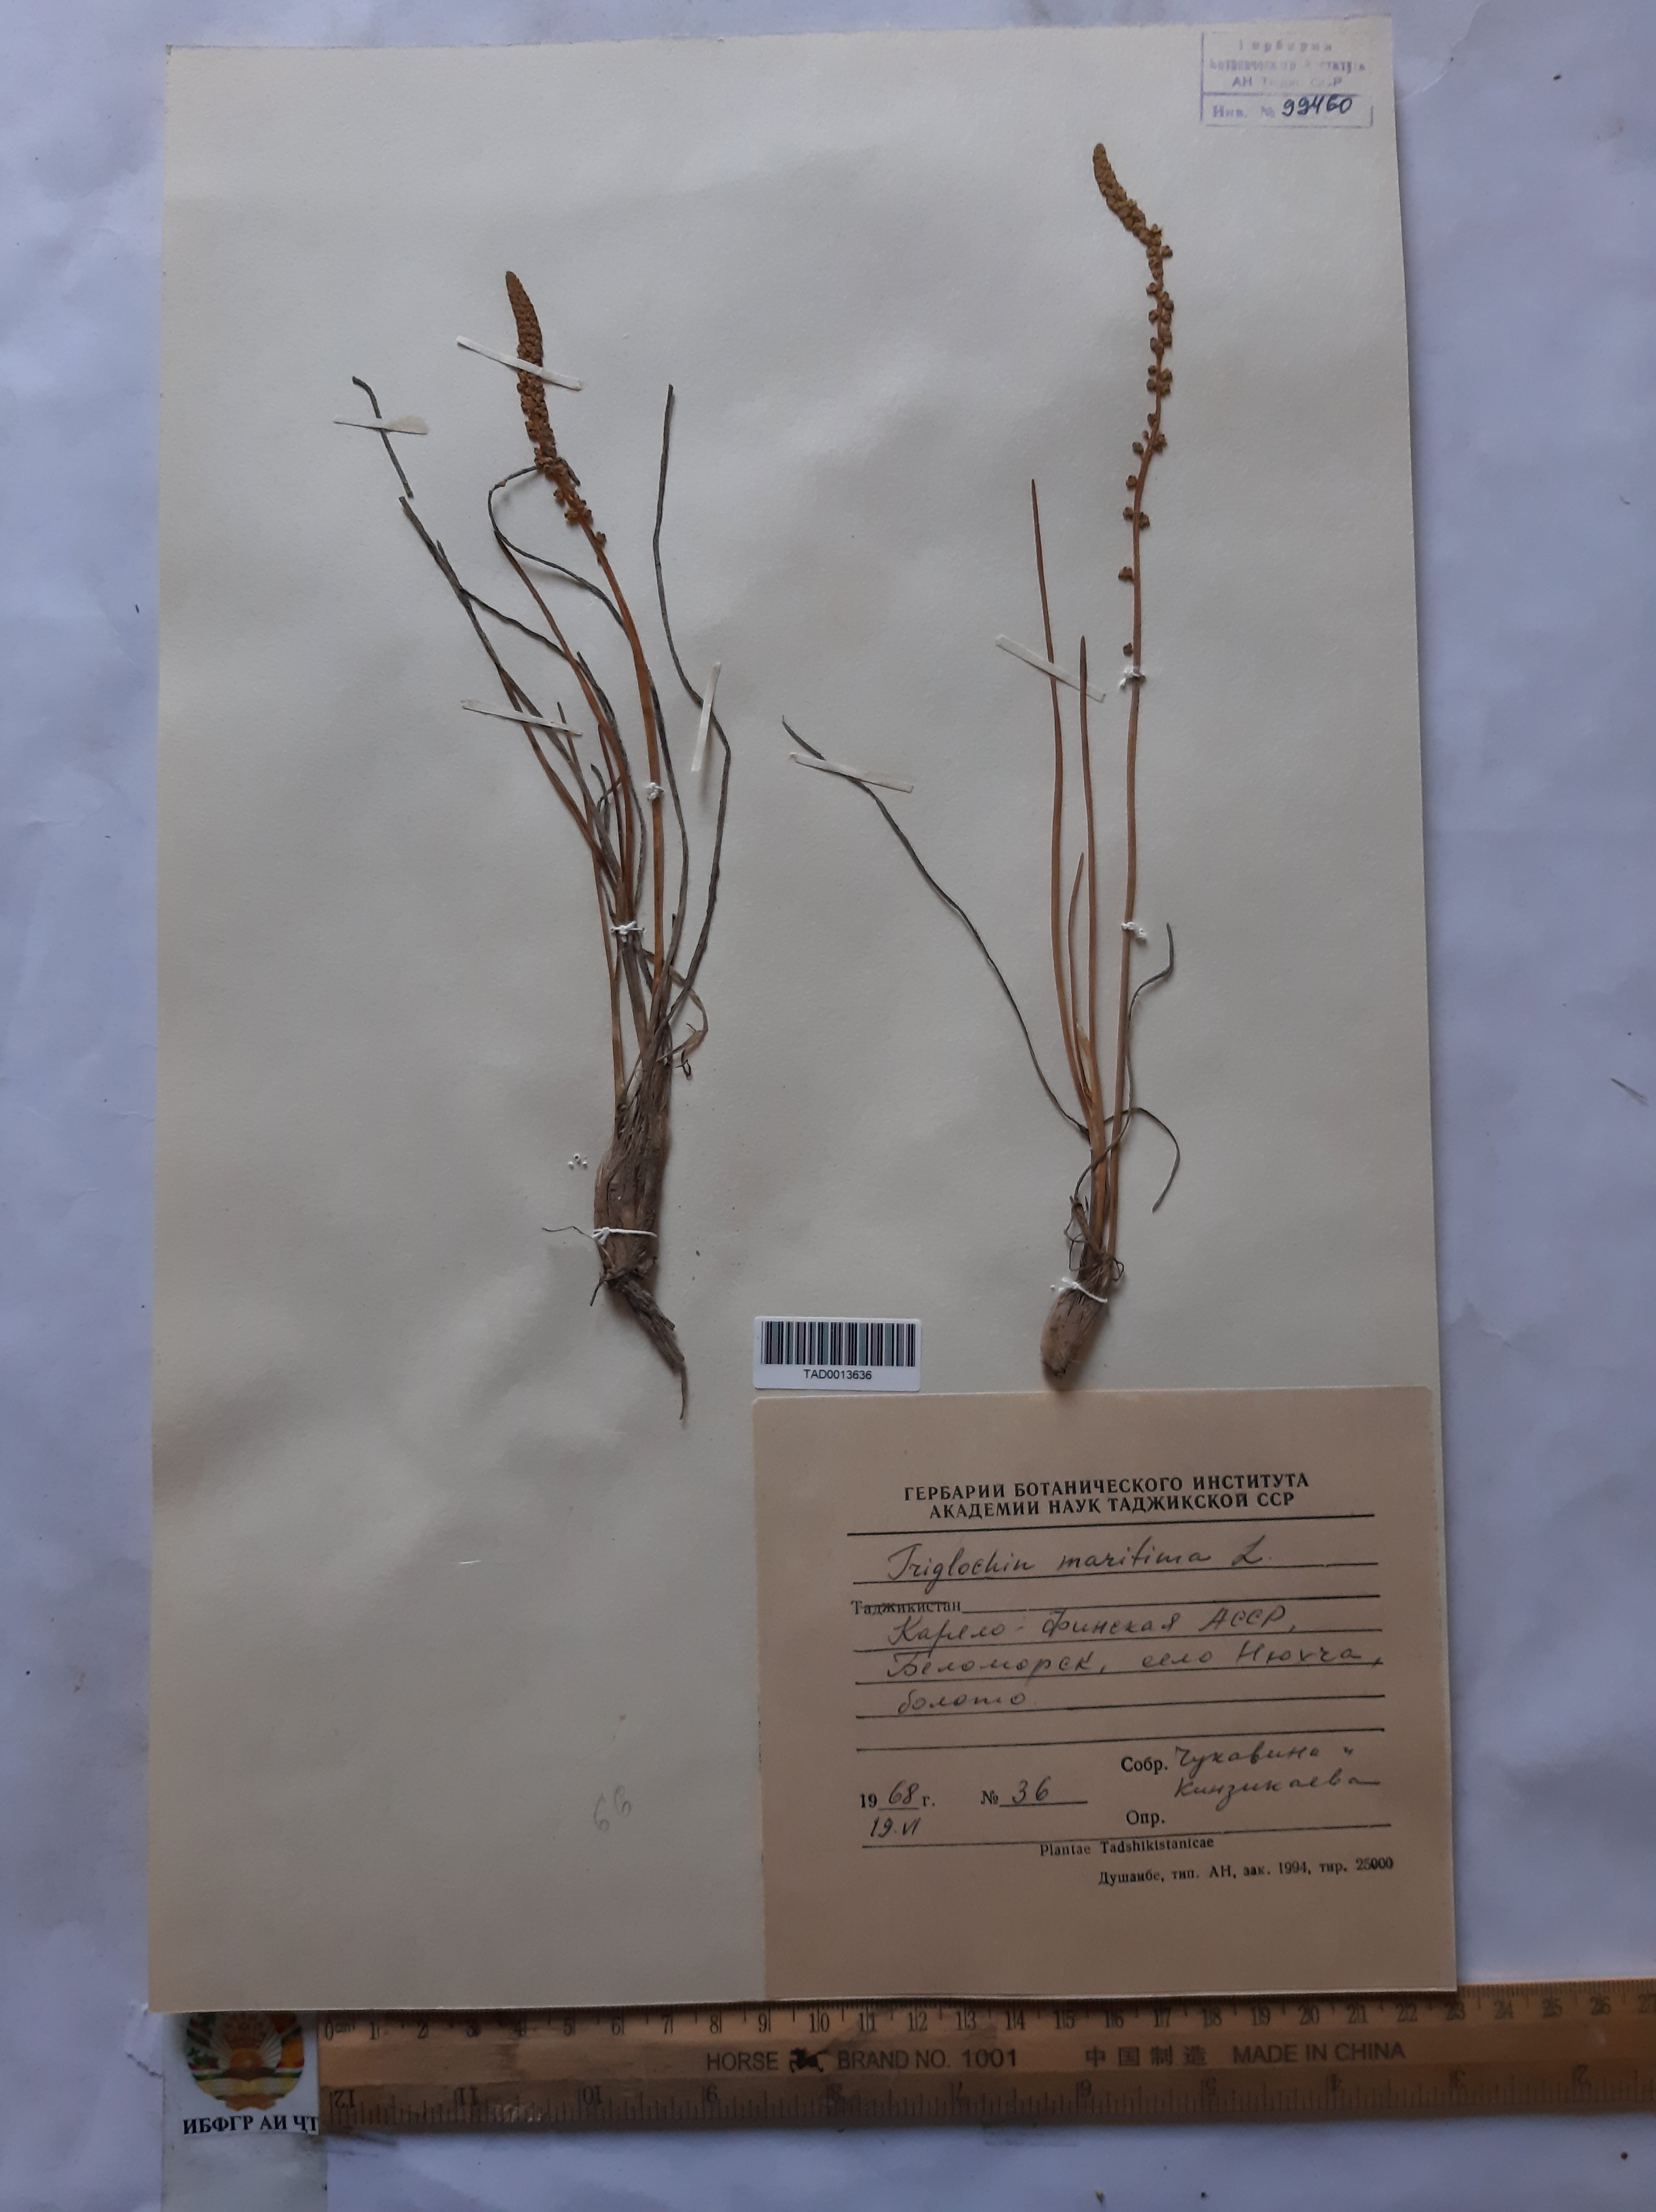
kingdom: Plantae
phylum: Tracheophyta
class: Liliopsida
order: Alismatales
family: Juncaginaceae
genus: Triglochin
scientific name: Triglochin maritima
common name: Sea arrowgrass
